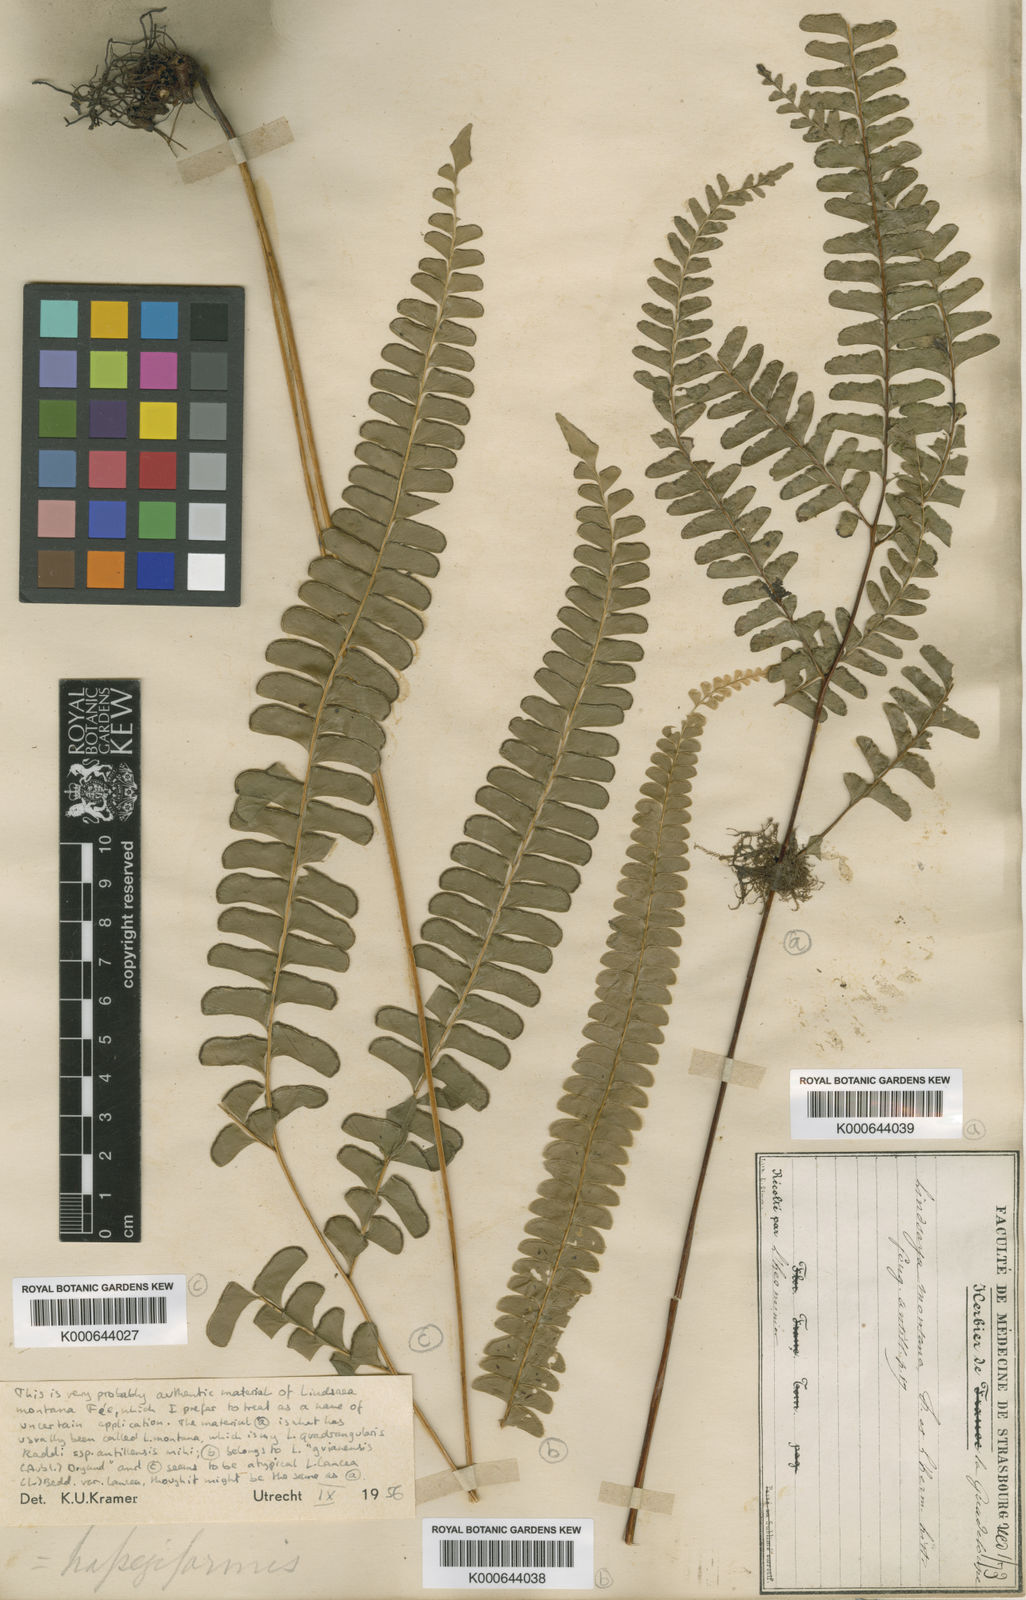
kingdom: Plantae
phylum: Tracheophyta
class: Polypodiopsida
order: Polypodiales
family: Lindsaeaceae
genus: Lindsaea
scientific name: Lindsaea quadrangularis
